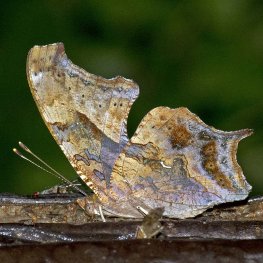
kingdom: Animalia
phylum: Arthropoda
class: Insecta
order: Lepidoptera
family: Nymphalidae
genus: Polygonia
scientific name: Polygonia interrogationis
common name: Question Mark
